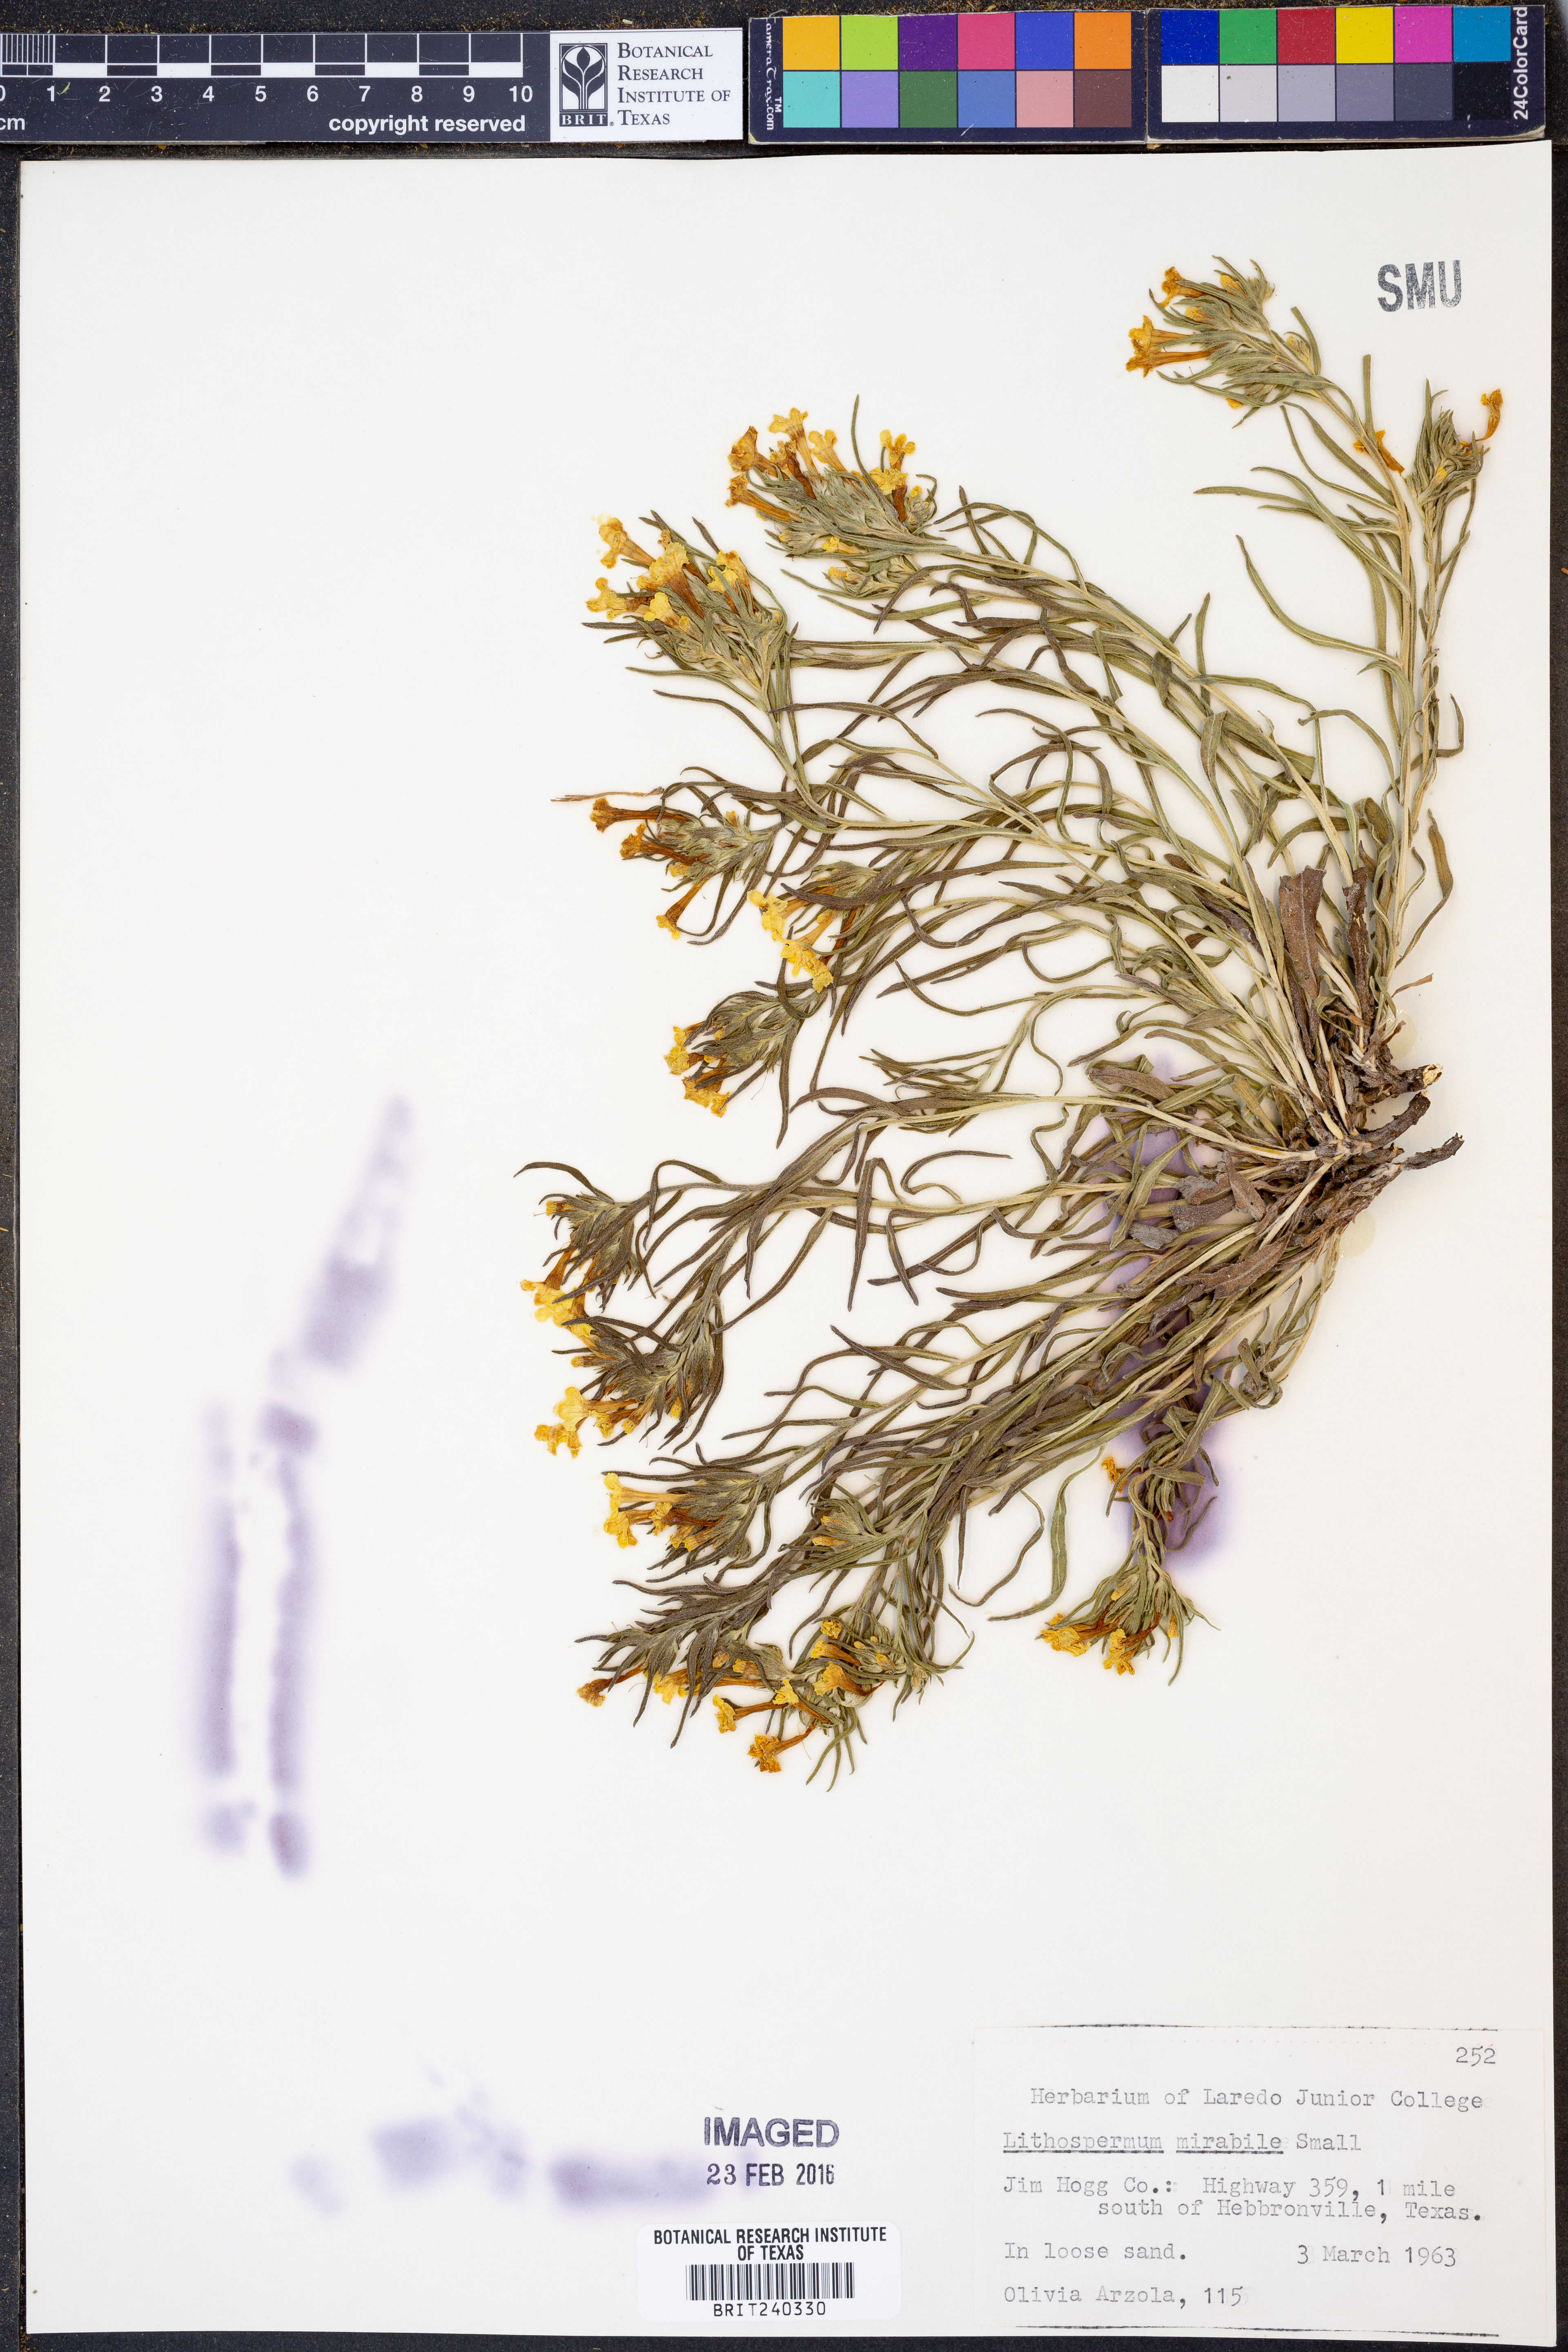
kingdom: Plantae
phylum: Tracheophyta
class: Magnoliopsida
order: Boraginales
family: Boraginaceae
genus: Lithospermum
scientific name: Lithospermum mirabile
